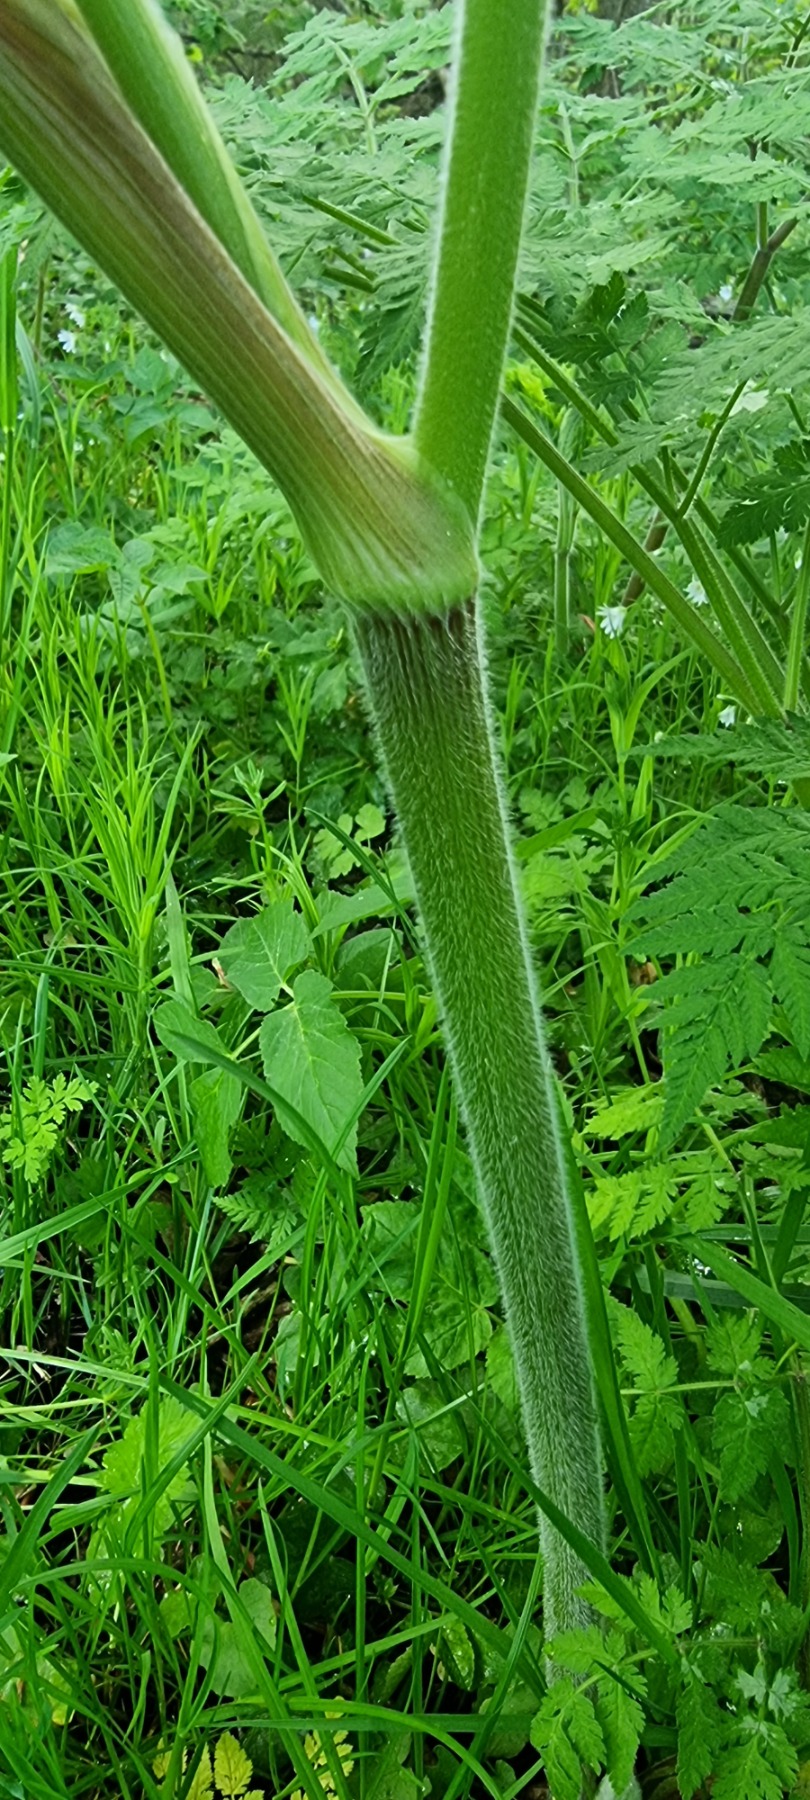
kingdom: Plantae
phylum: Tracheophyta
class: Magnoliopsida
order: Apiales
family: Apiaceae
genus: Myrrhis
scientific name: Myrrhis odorata
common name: Sødskærm
